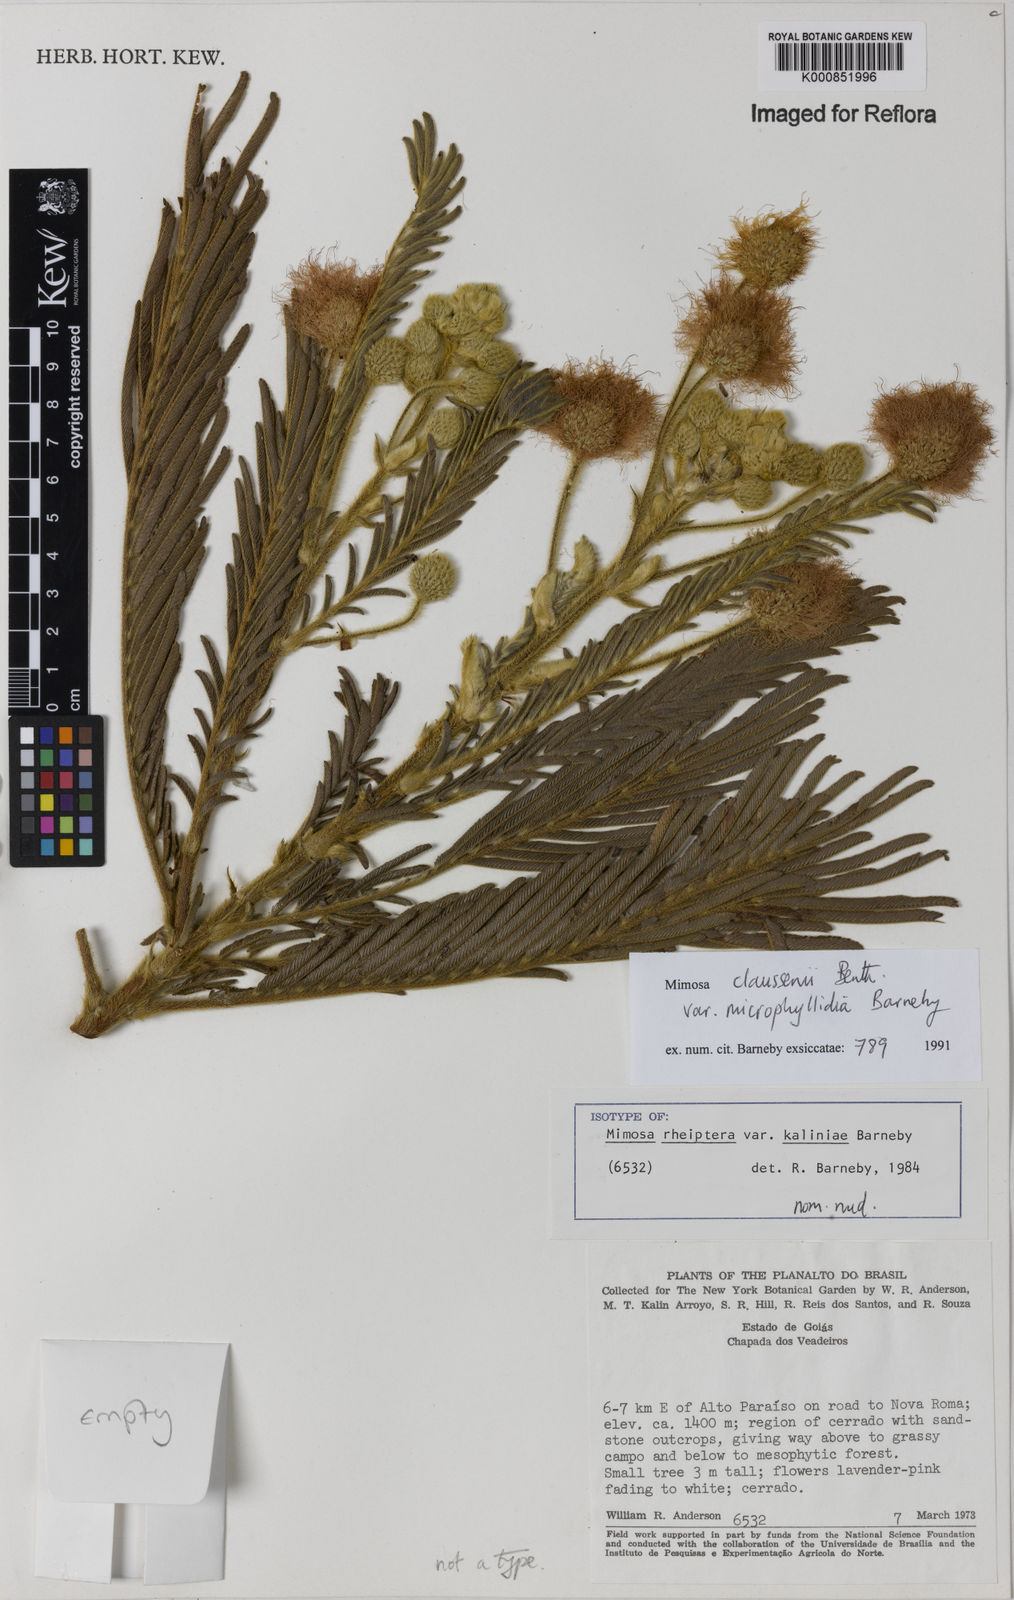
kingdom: Plantae
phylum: Tracheophyta
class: Magnoliopsida
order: Fabales
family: Fabaceae
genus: Mimosa
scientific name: Mimosa claussenii
